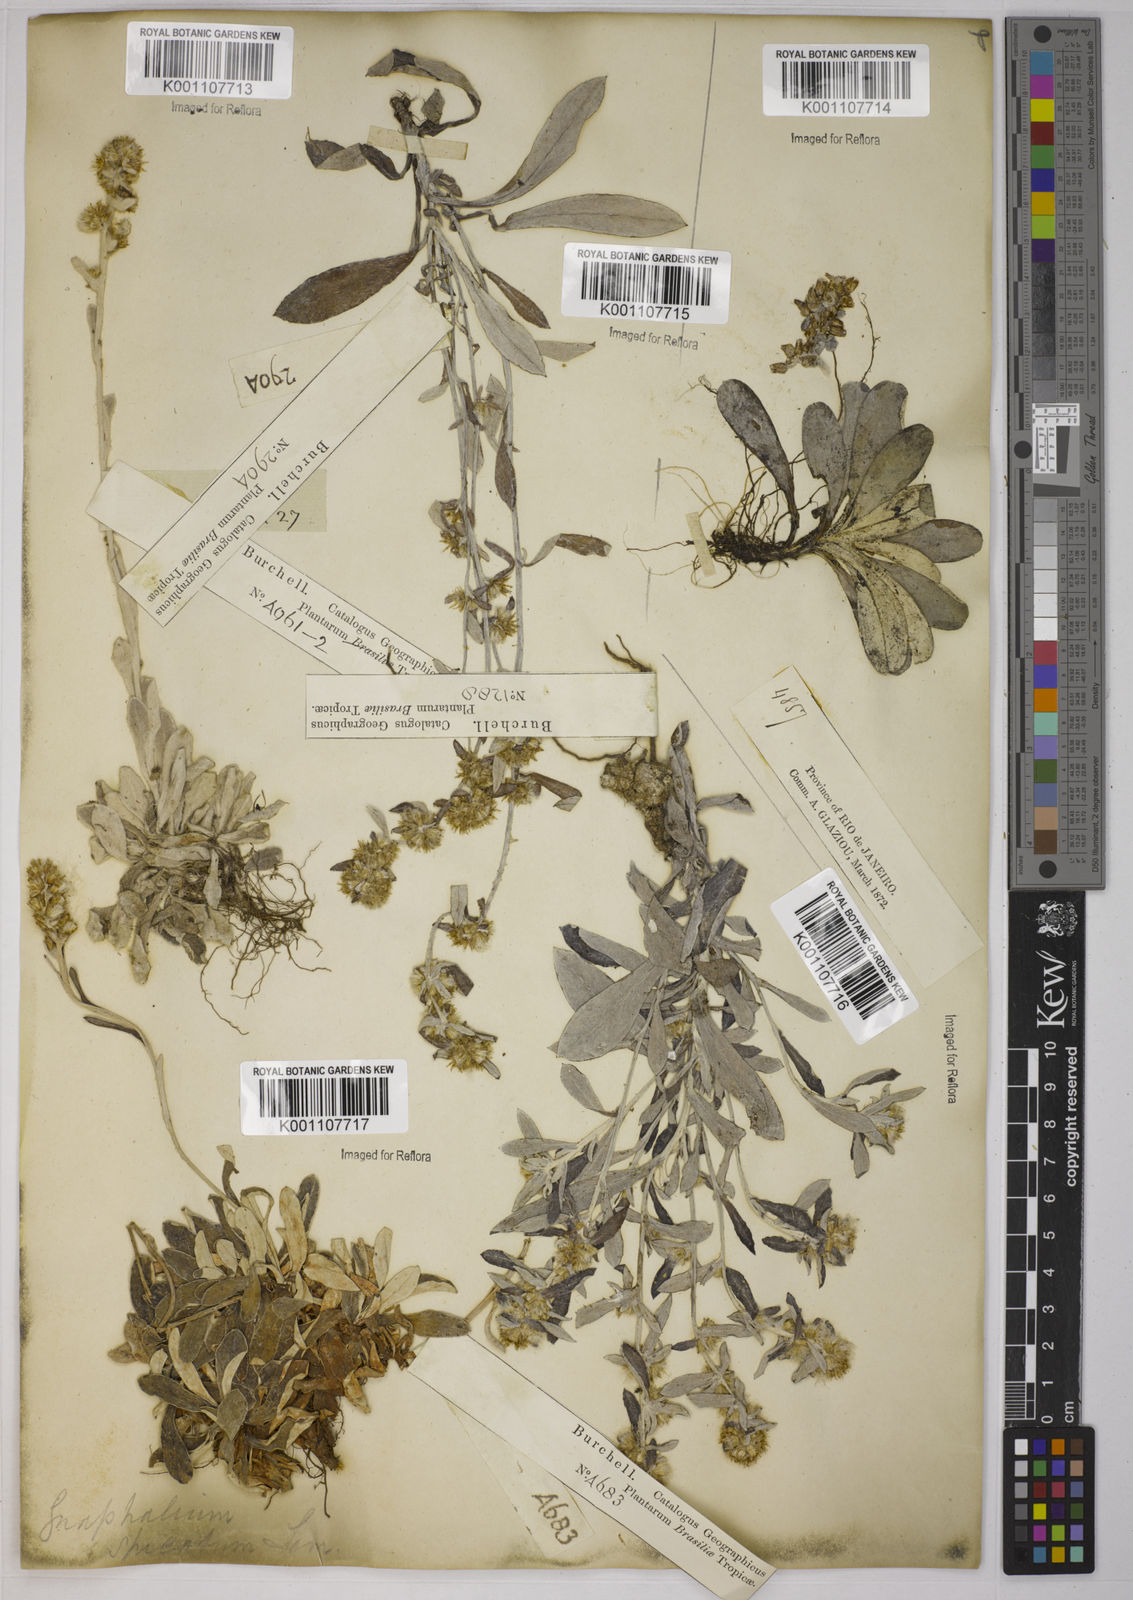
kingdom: Plantae
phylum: Tracheophyta
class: Magnoliopsida
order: Asterales
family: Asteraceae
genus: Gnaphalium
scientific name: Gnaphalium
